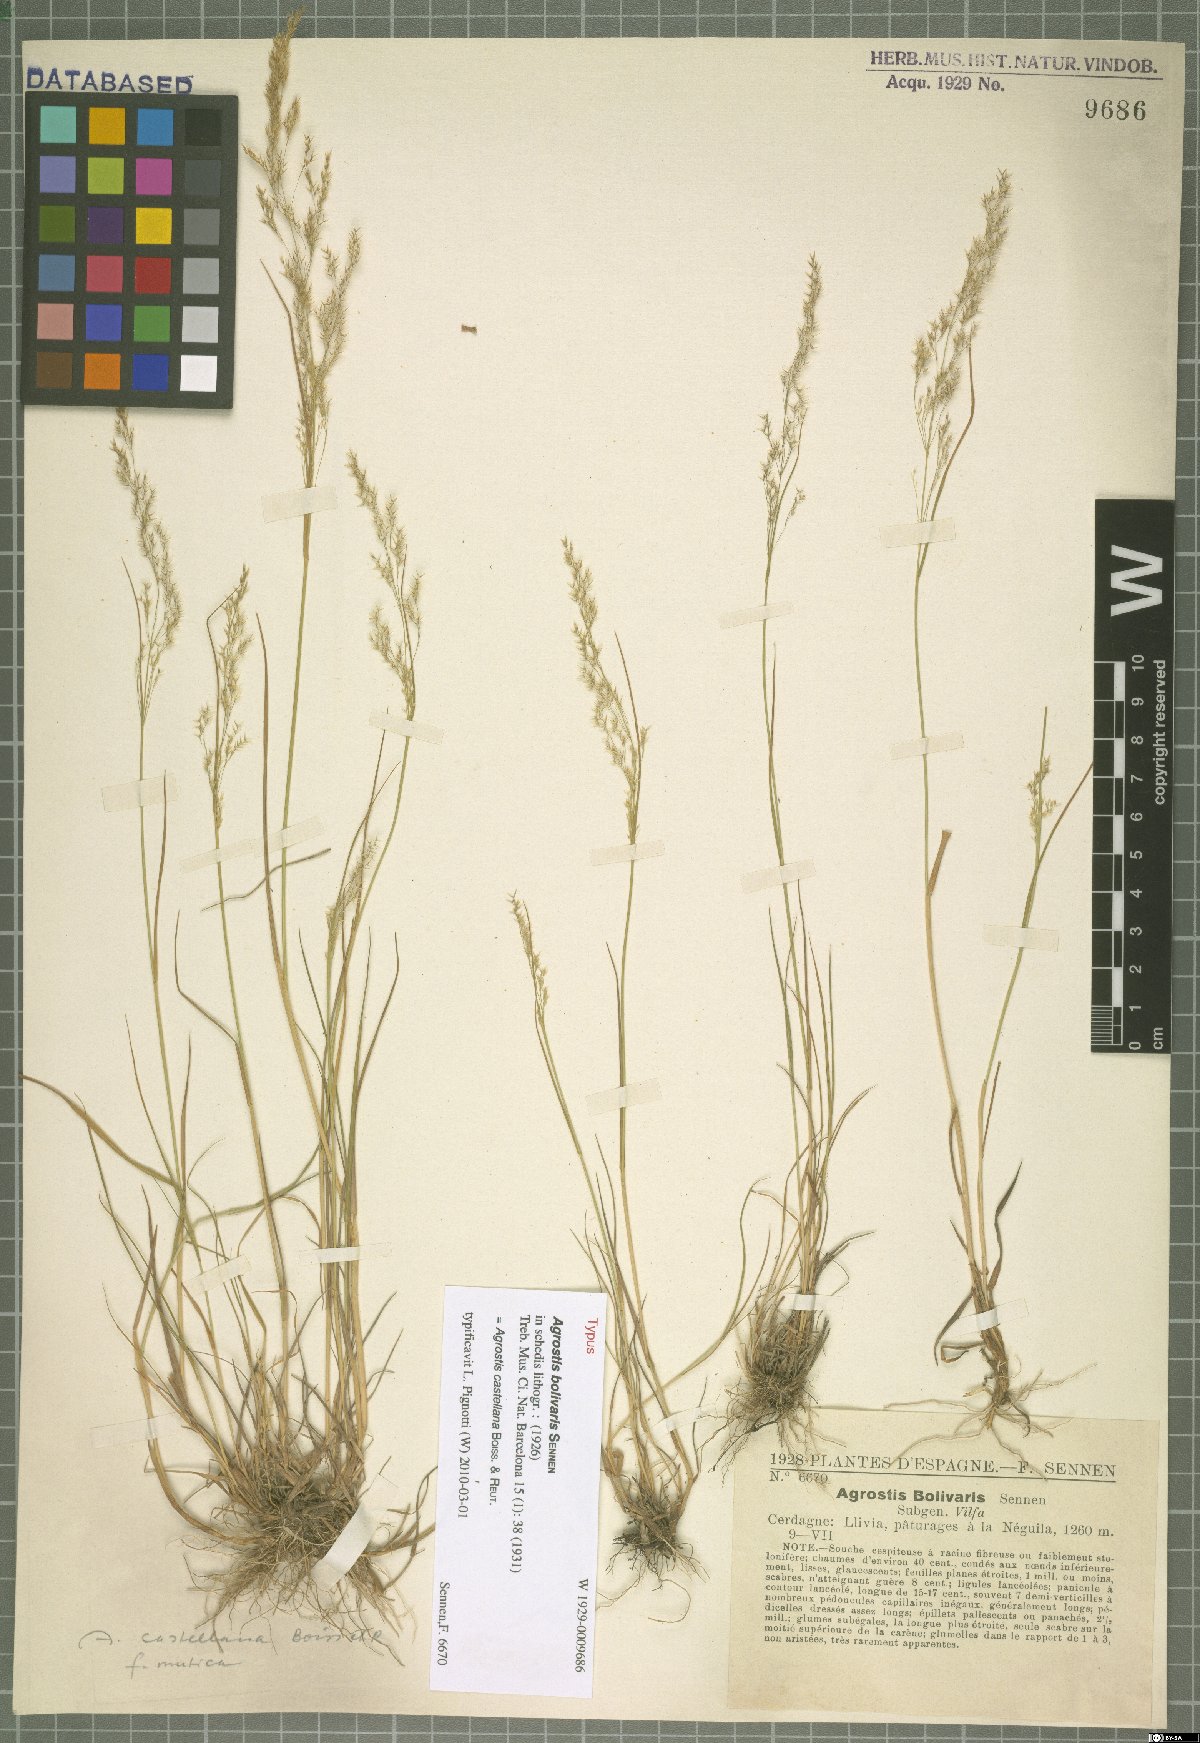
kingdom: Plantae
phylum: Tracheophyta
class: Liliopsida
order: Poales
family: Poaceae
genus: Agrostis
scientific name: Agrostis castellana
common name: Highland bent
